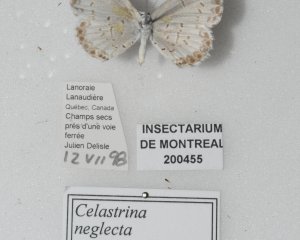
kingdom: Animalia
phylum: Arthropoda
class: Insecta
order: Lepidoptera
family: Lycaenidae
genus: Cyaniris
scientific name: Cyaniris neglecta
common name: Summer Azure
